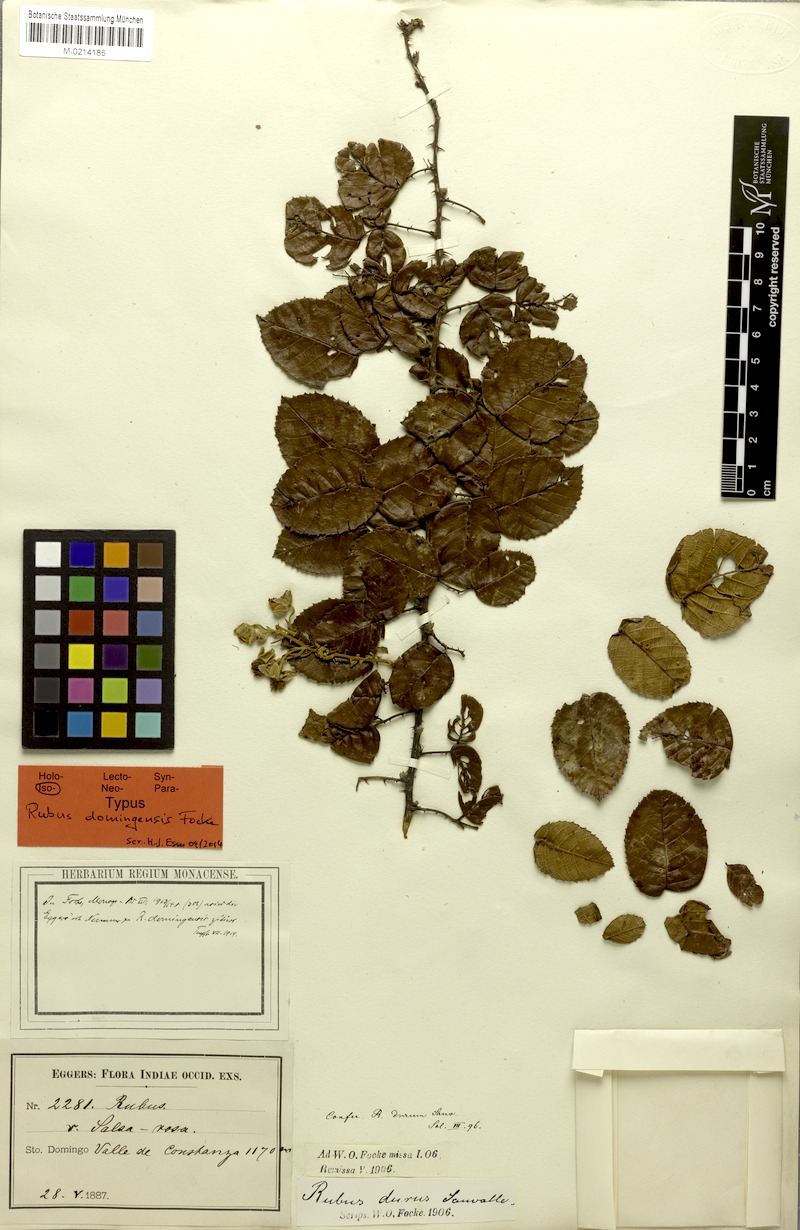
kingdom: Plantae
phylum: Tracheophyta
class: Magnoliopsida
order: Rosales
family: Rosaceae
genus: Rubus
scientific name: Rubus domingensis
